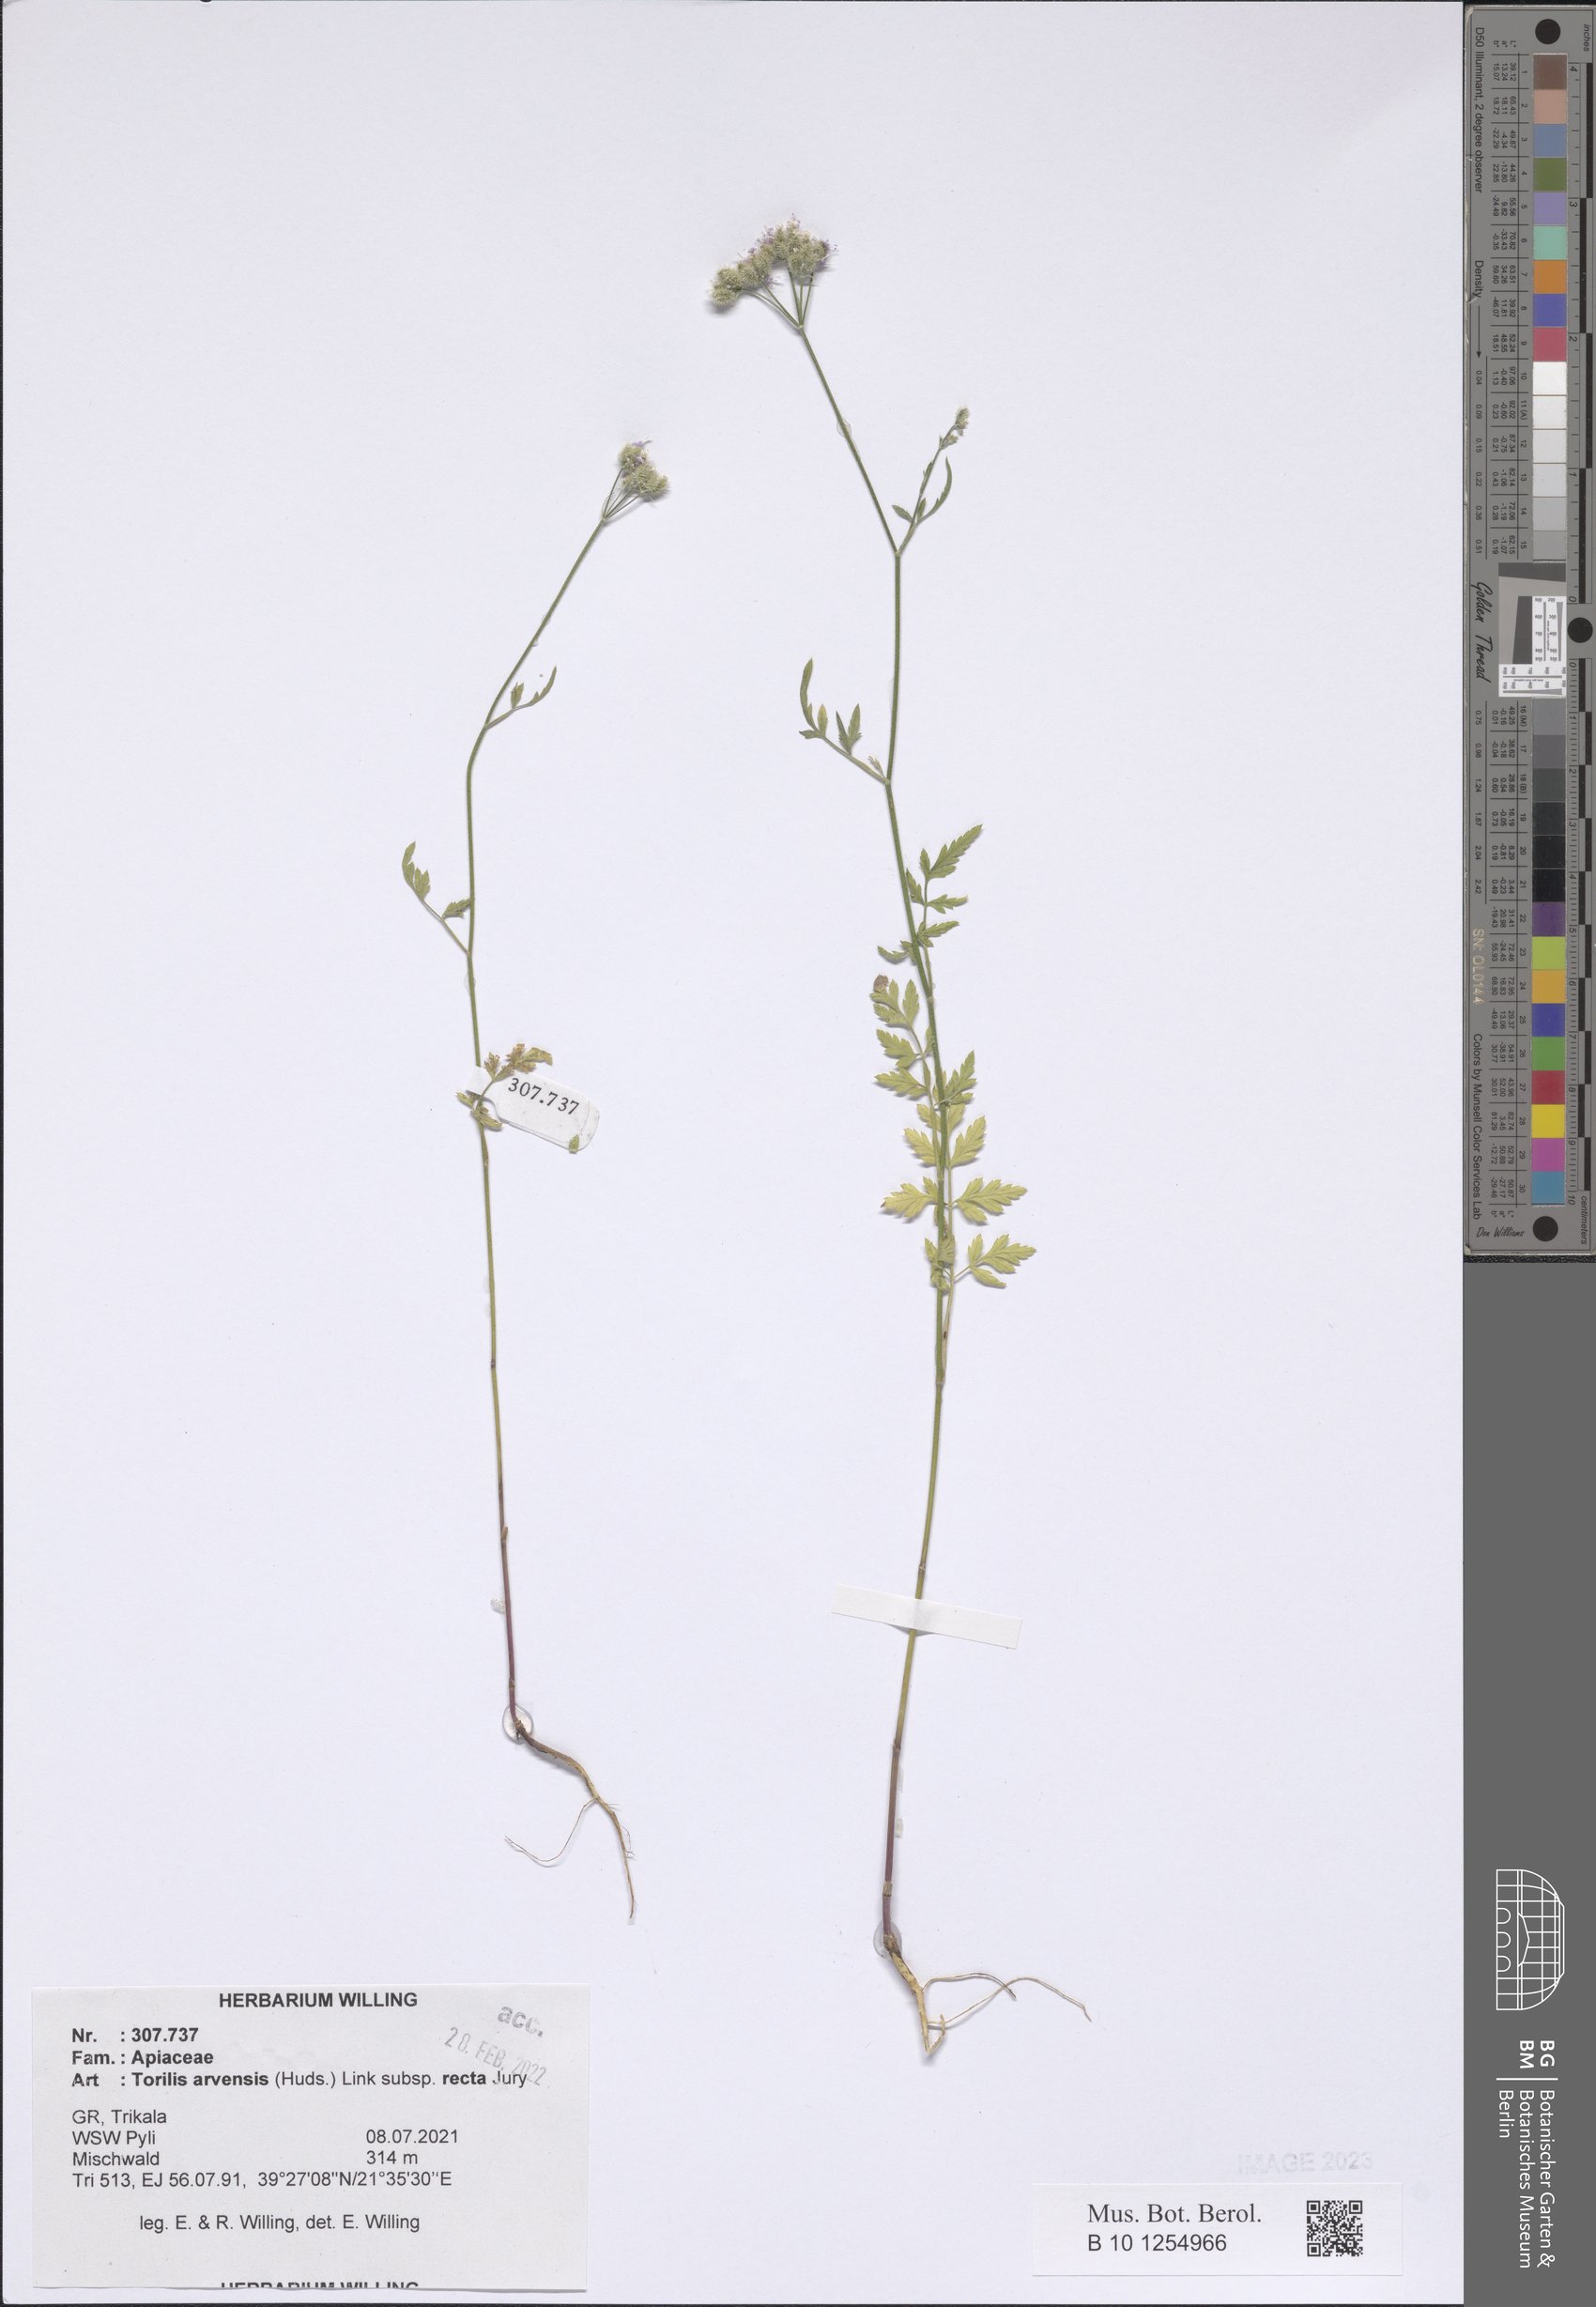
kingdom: Plantae
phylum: Tracheophyta
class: Magnoliopsida
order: Apiales
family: Apiaceae
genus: Torilis
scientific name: Torilis arvensis
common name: Spreading hedge-parsley
